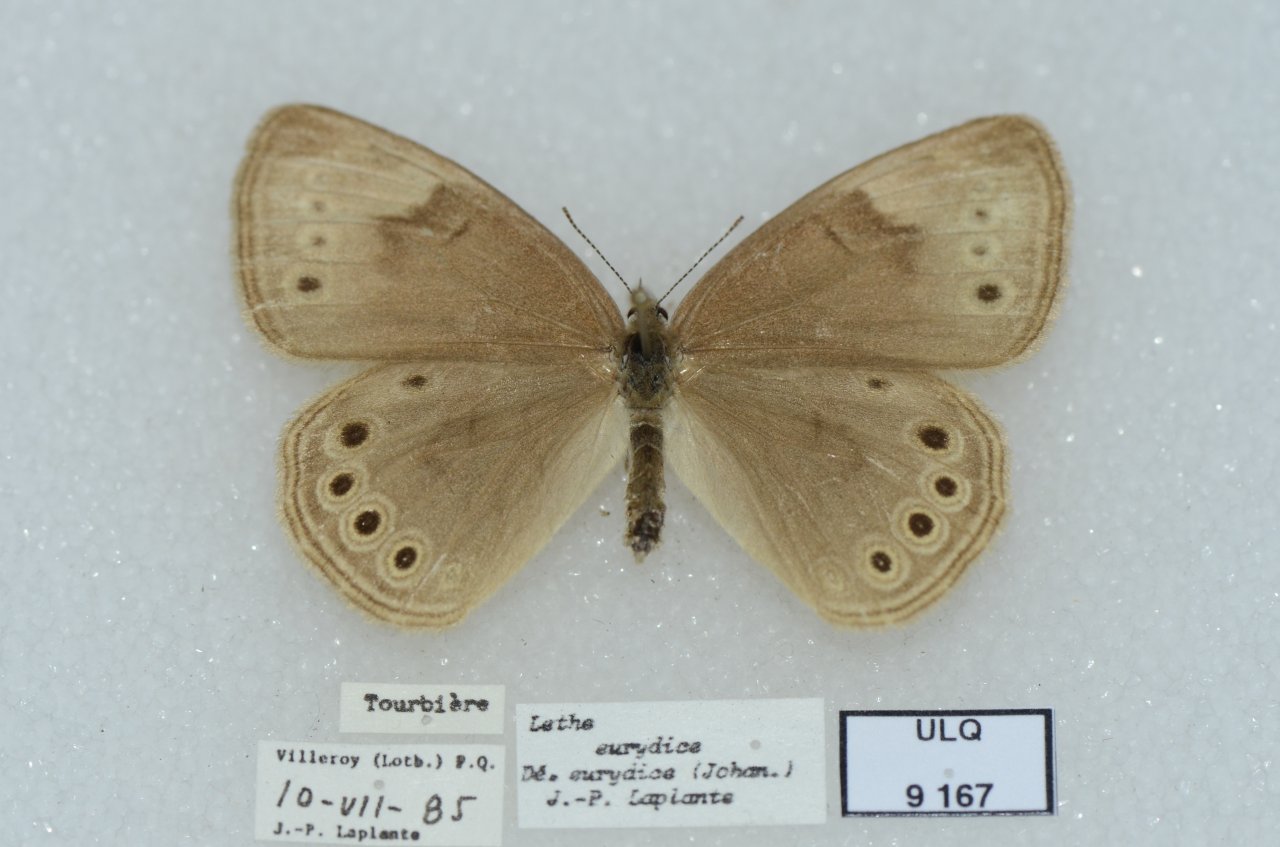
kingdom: Animalia
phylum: Arthropoda
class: Insecta
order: Lepidoptera
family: Nymphalidae
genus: Lethe
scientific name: Lethe eurydice
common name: Eyed Brown
